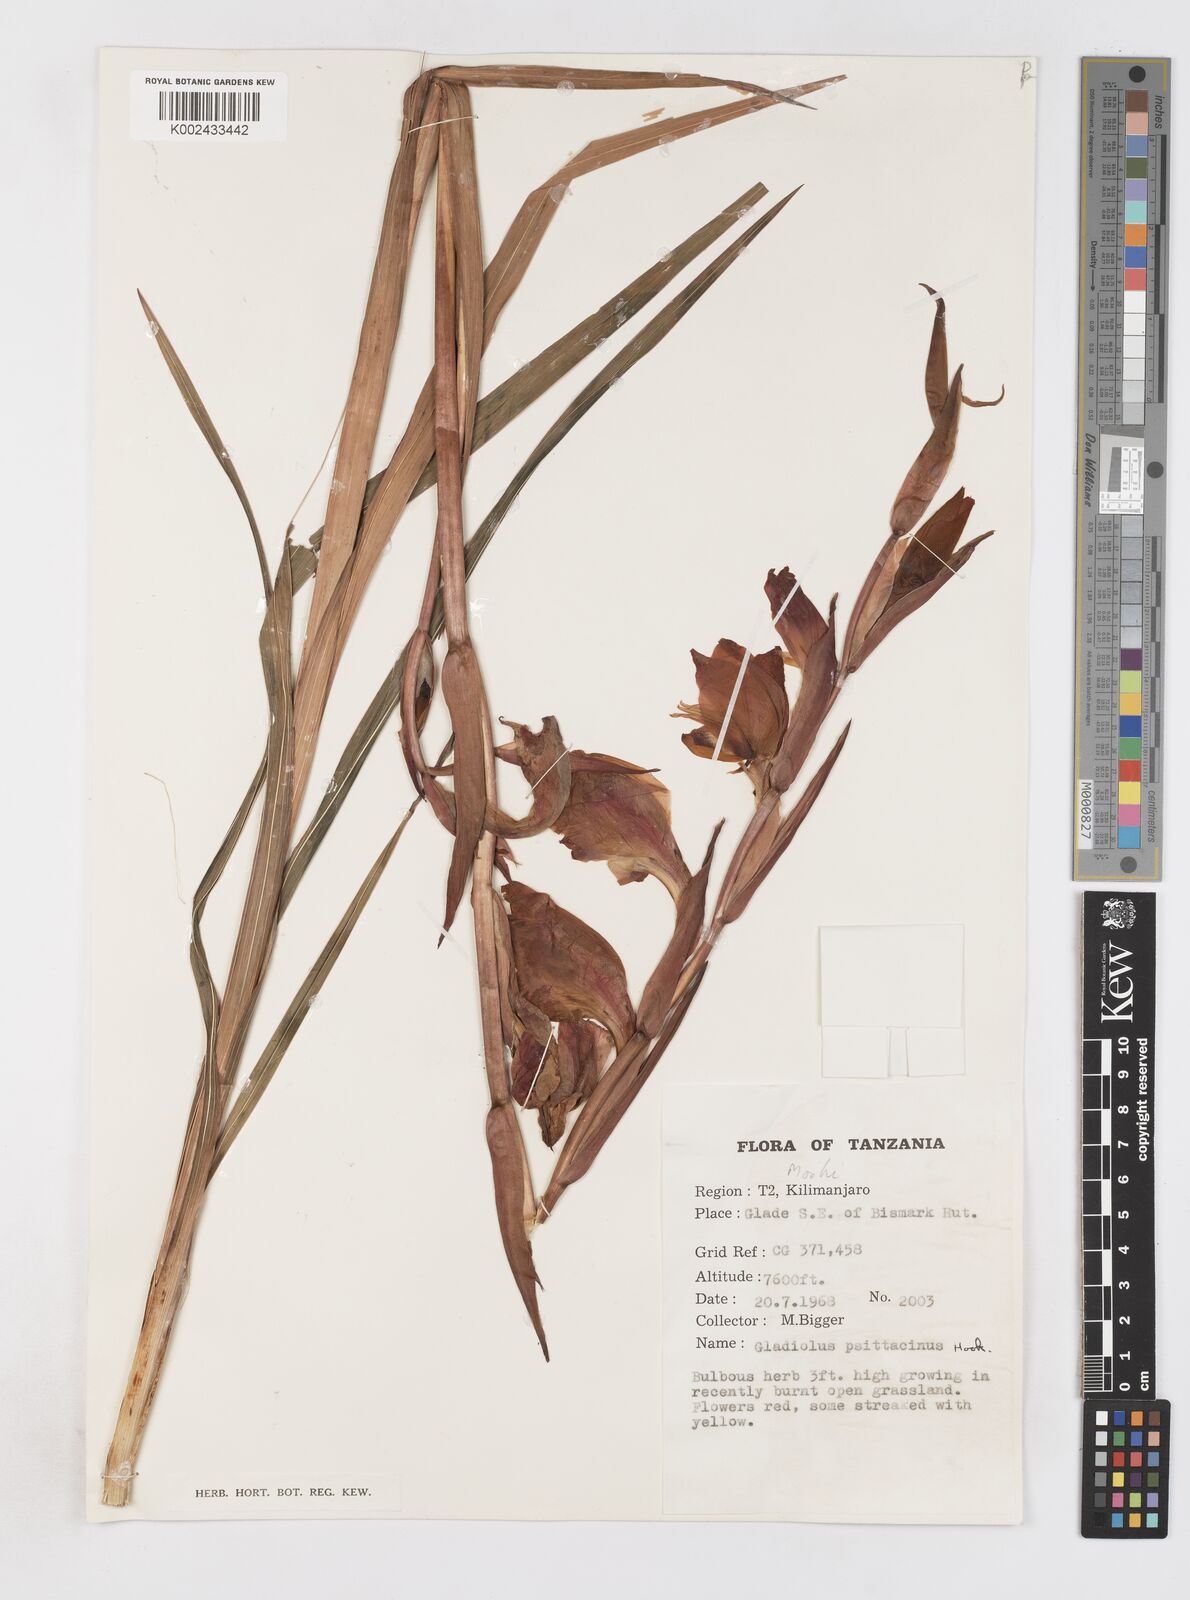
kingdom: Plantae
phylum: Tracheophyta
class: Liliopsida
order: Asparagales
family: Iridaceae
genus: Gladiolus
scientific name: Gladiolus dalenii
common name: Cornflag
